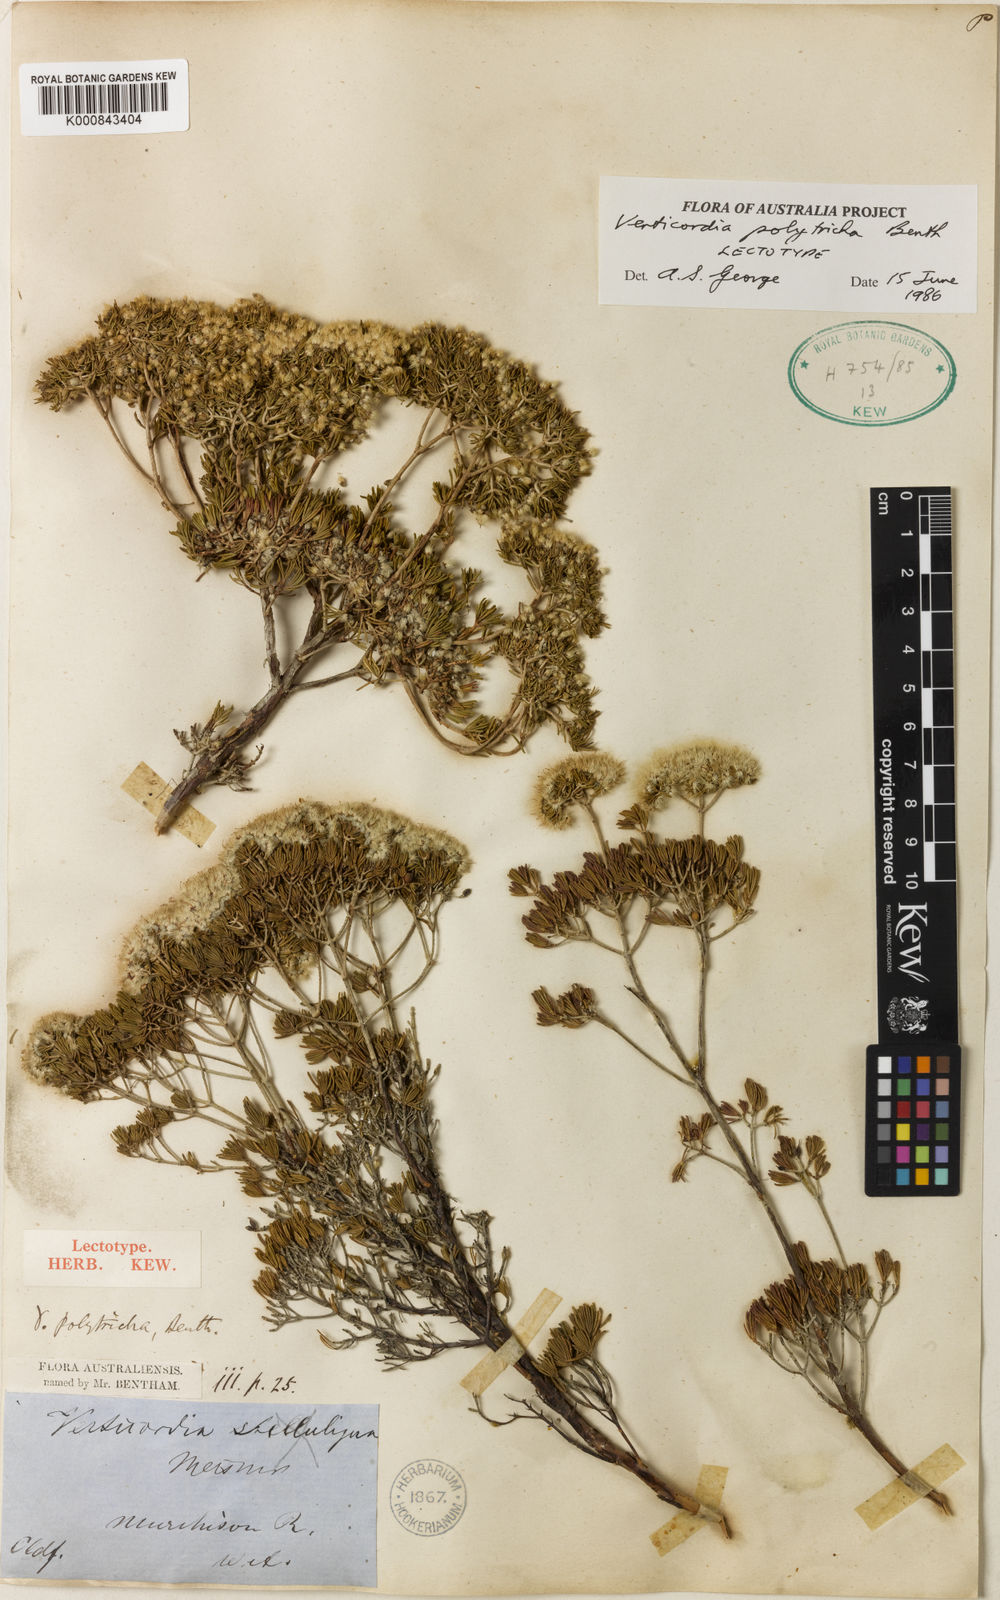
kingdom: Plantae
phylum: Tracheophyta
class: Magnoliopsida
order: Myrtales
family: Myrtaceae
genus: Verticordia
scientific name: Verticordia polytricha
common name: Northern-cauliflower
